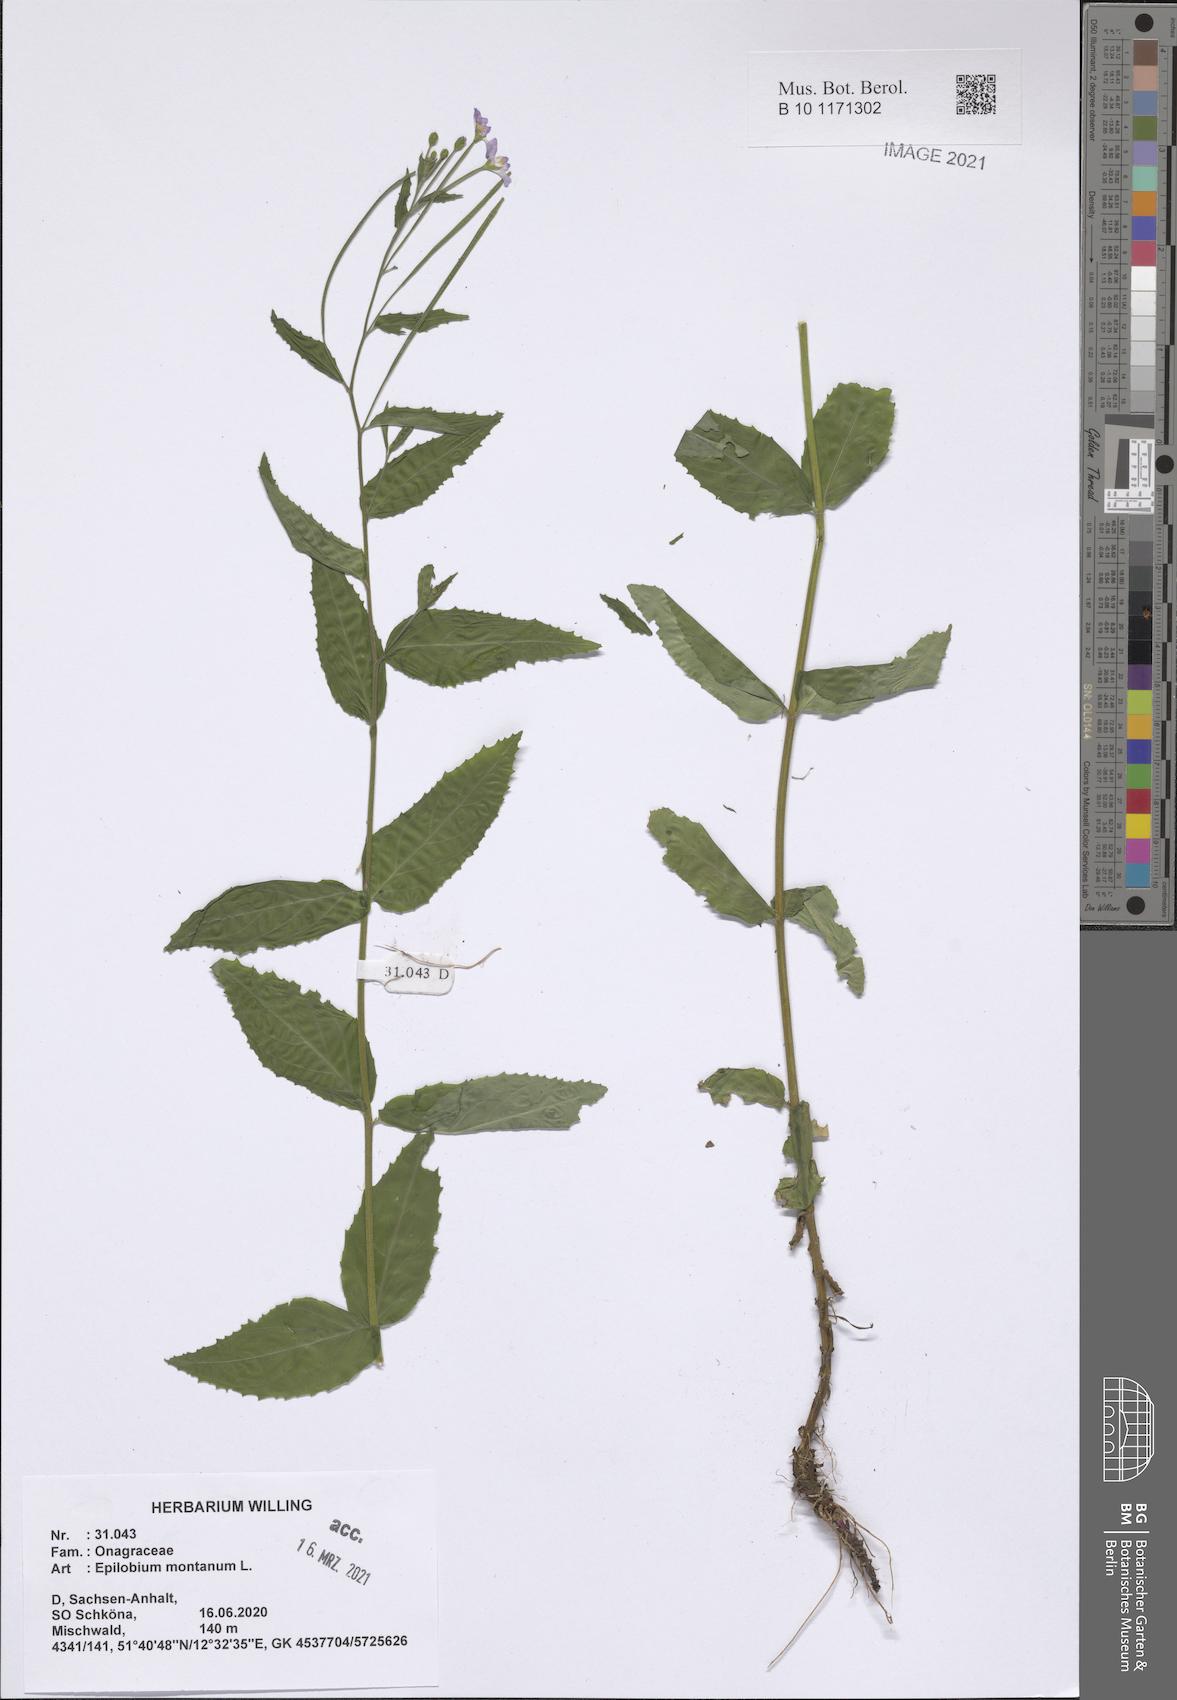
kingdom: Plantae
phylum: Tracheophyta
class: Magnoliopsida
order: Myrtales
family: Onagraceae
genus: Epilobium
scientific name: Epilobium montanum
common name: Broad-leaved willowherb
